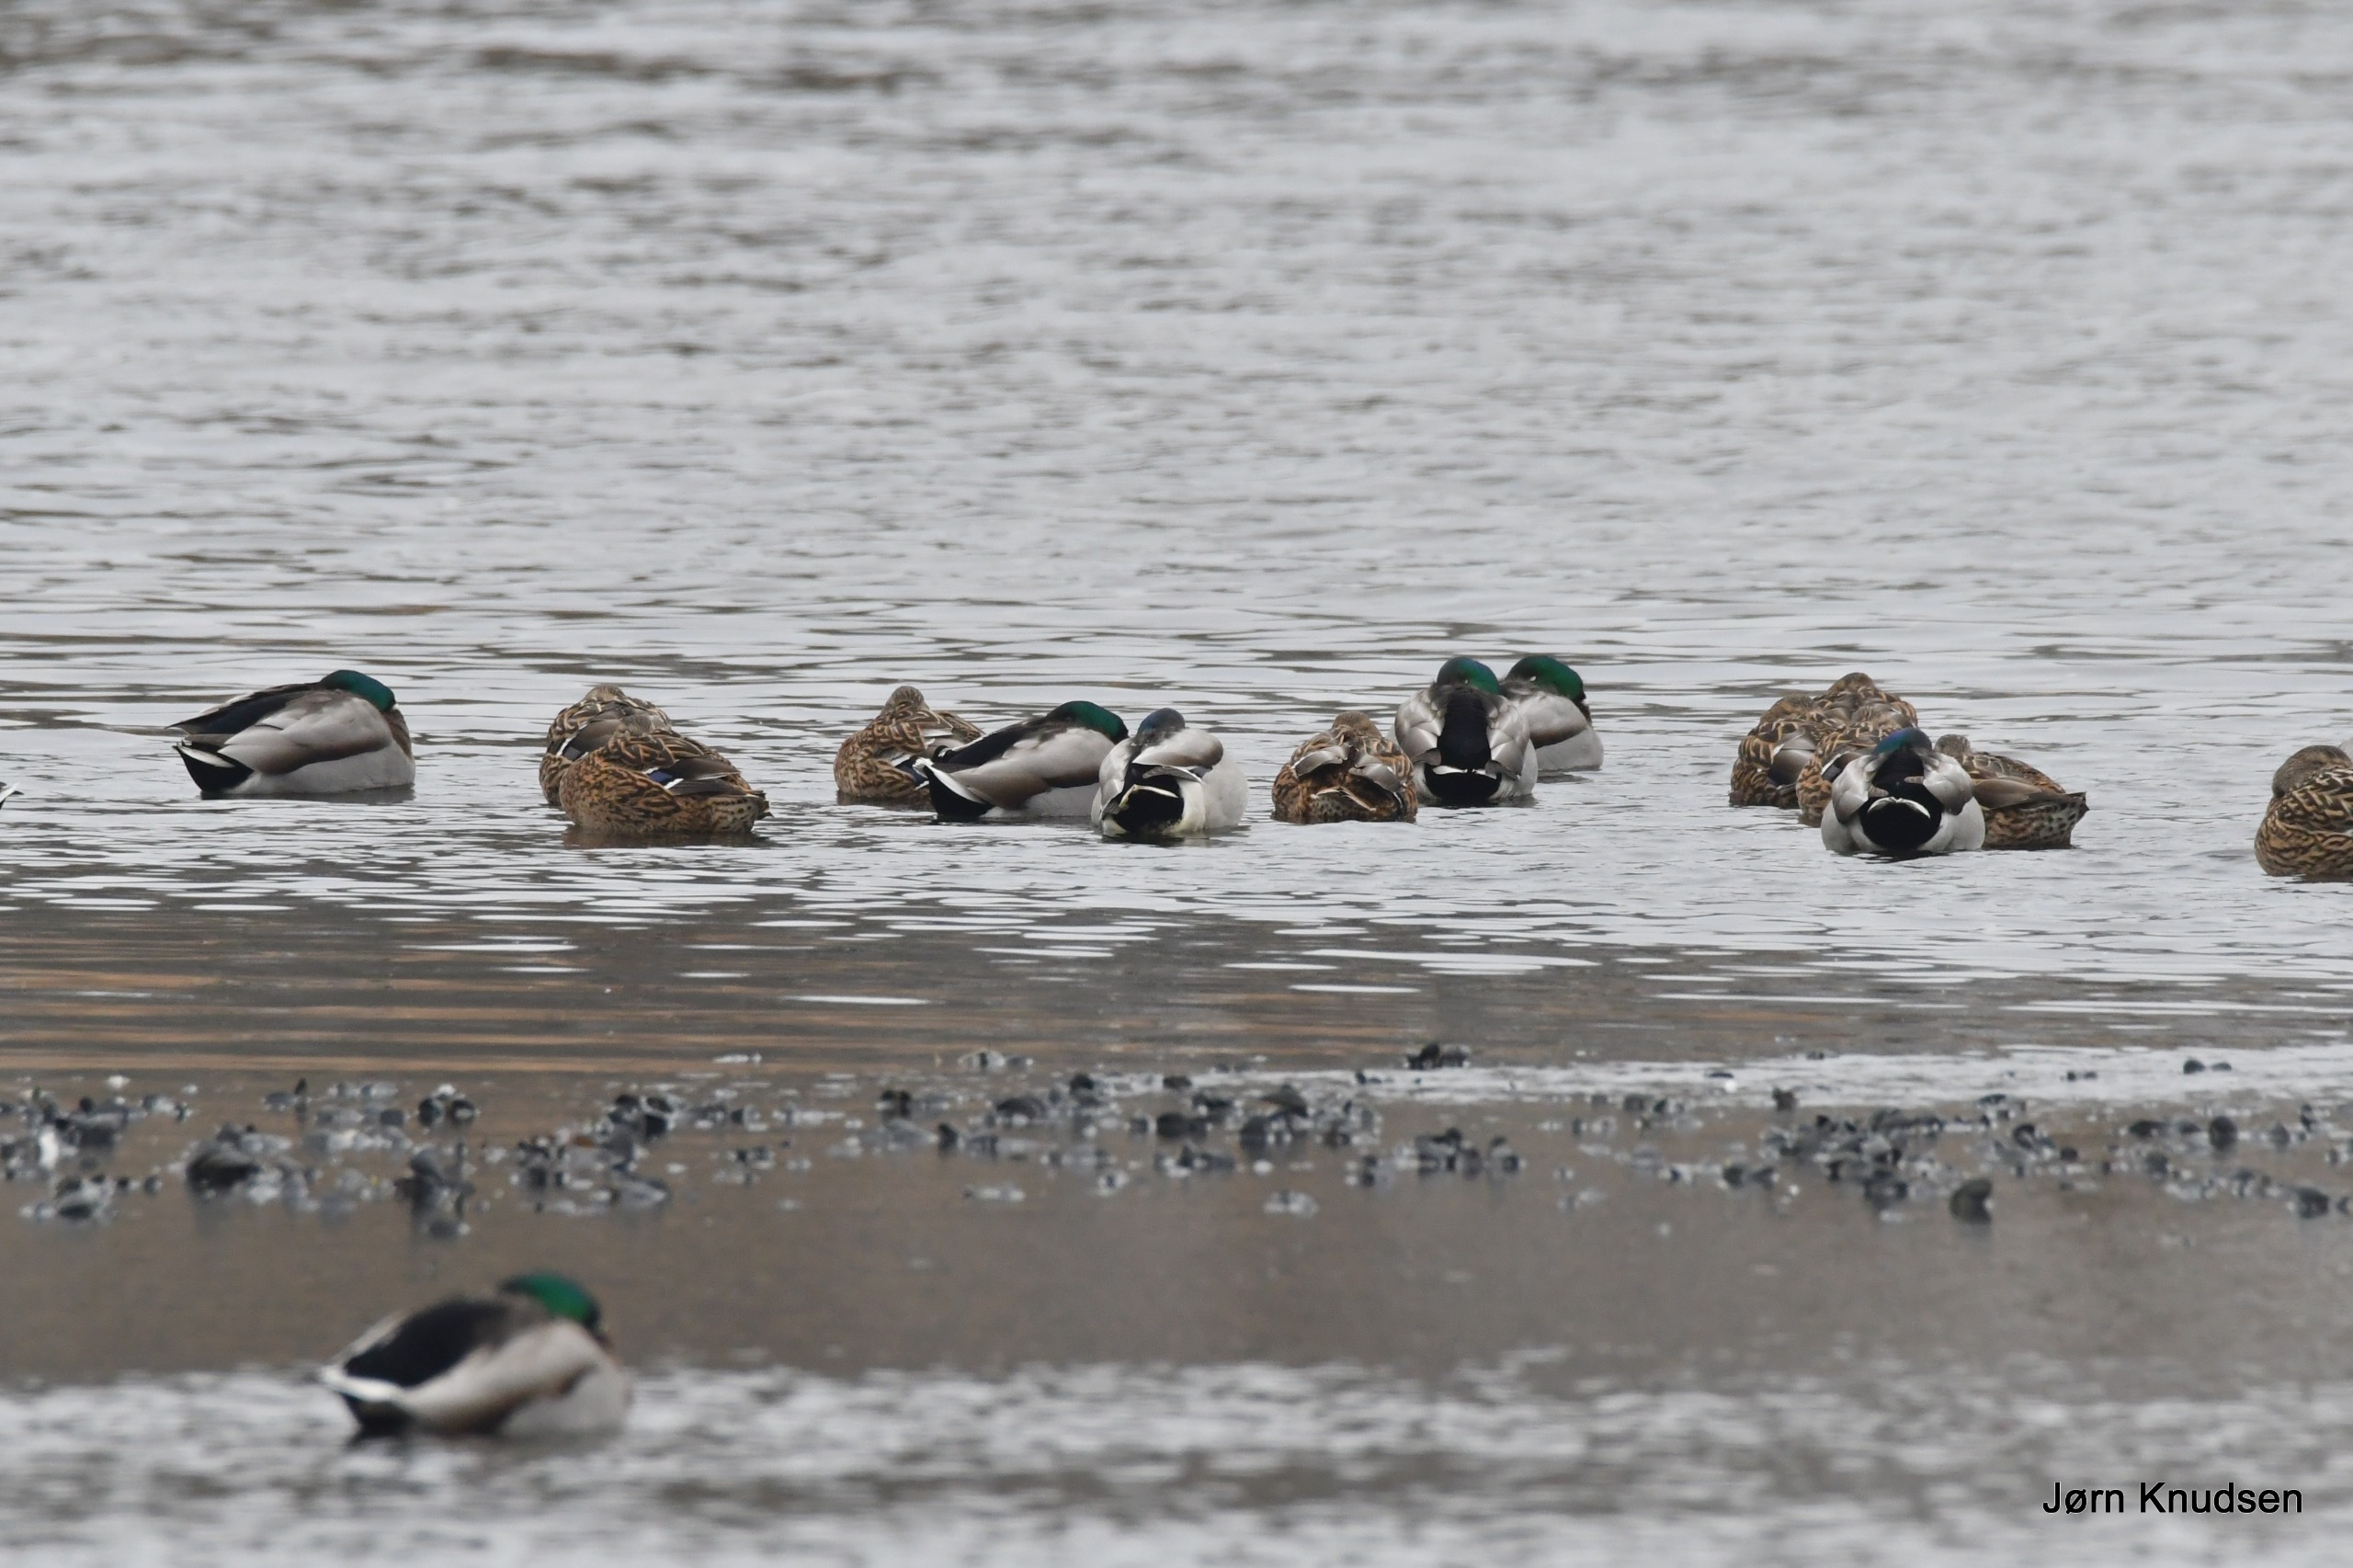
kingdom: Animalia
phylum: Chordata
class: Aves
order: Anseriformes
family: Anatidae
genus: Anas
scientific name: Anas platyrhynchos
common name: Gråand
